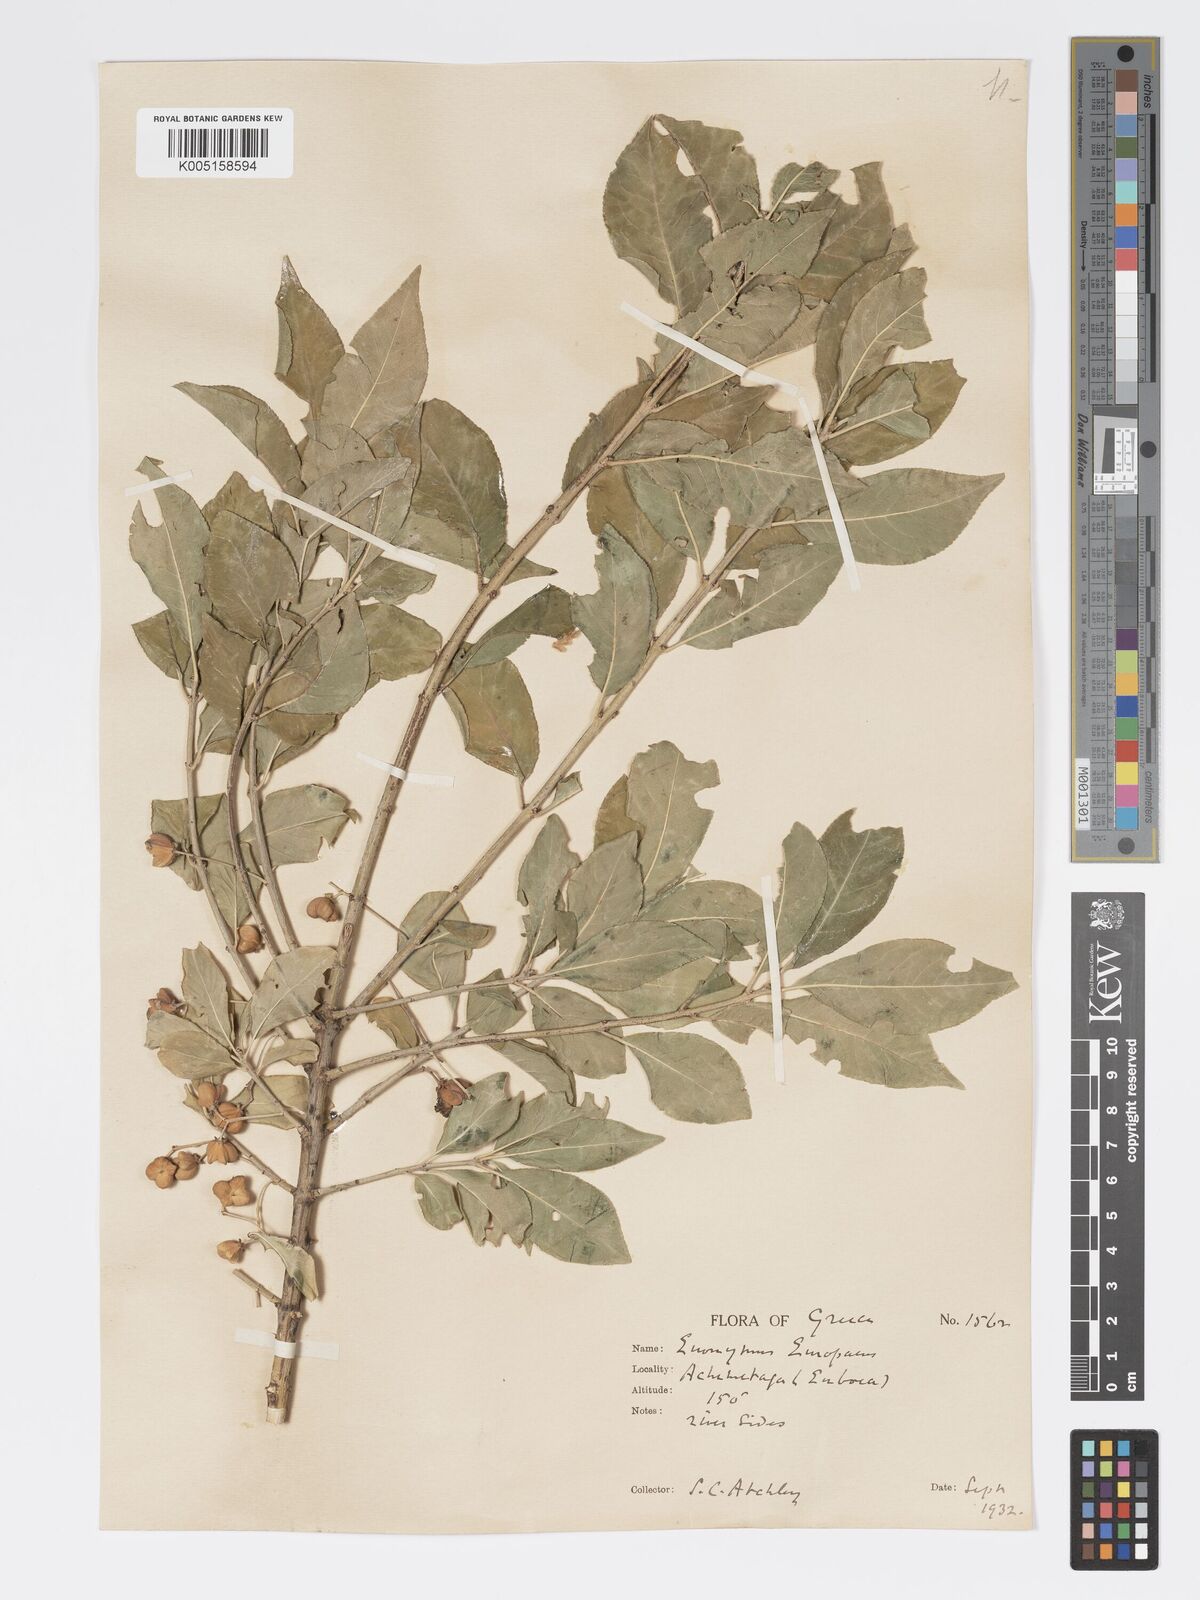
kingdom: Plantae
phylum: Tracheophyta
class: Magnoliopsida
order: Celastrales
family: Celastraceae
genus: Euonymus
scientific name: Euonymus europaeus
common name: Spindle
